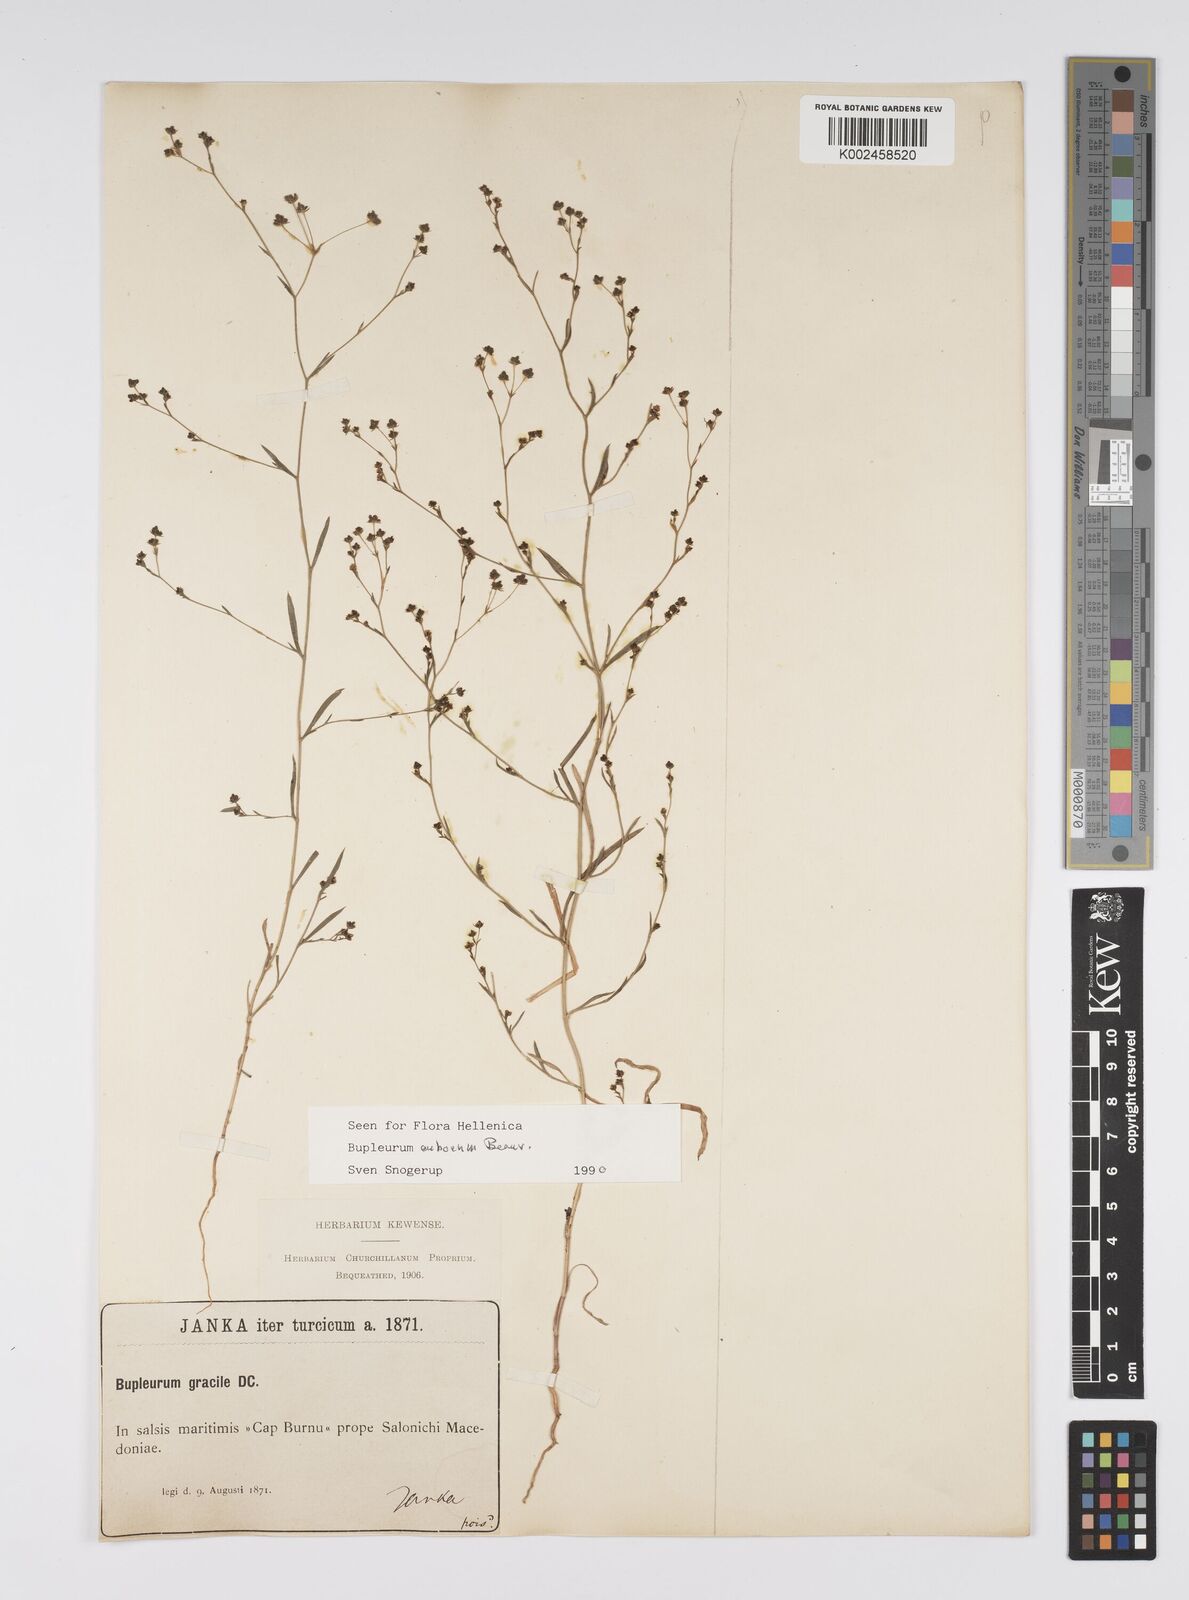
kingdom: Plantae
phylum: Tracheophyta
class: Magnoliopsida
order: Apiales
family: Apiaceae
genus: Bupleurum
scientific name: Bupleurum tenuissimum
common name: Slender hare's-ear
